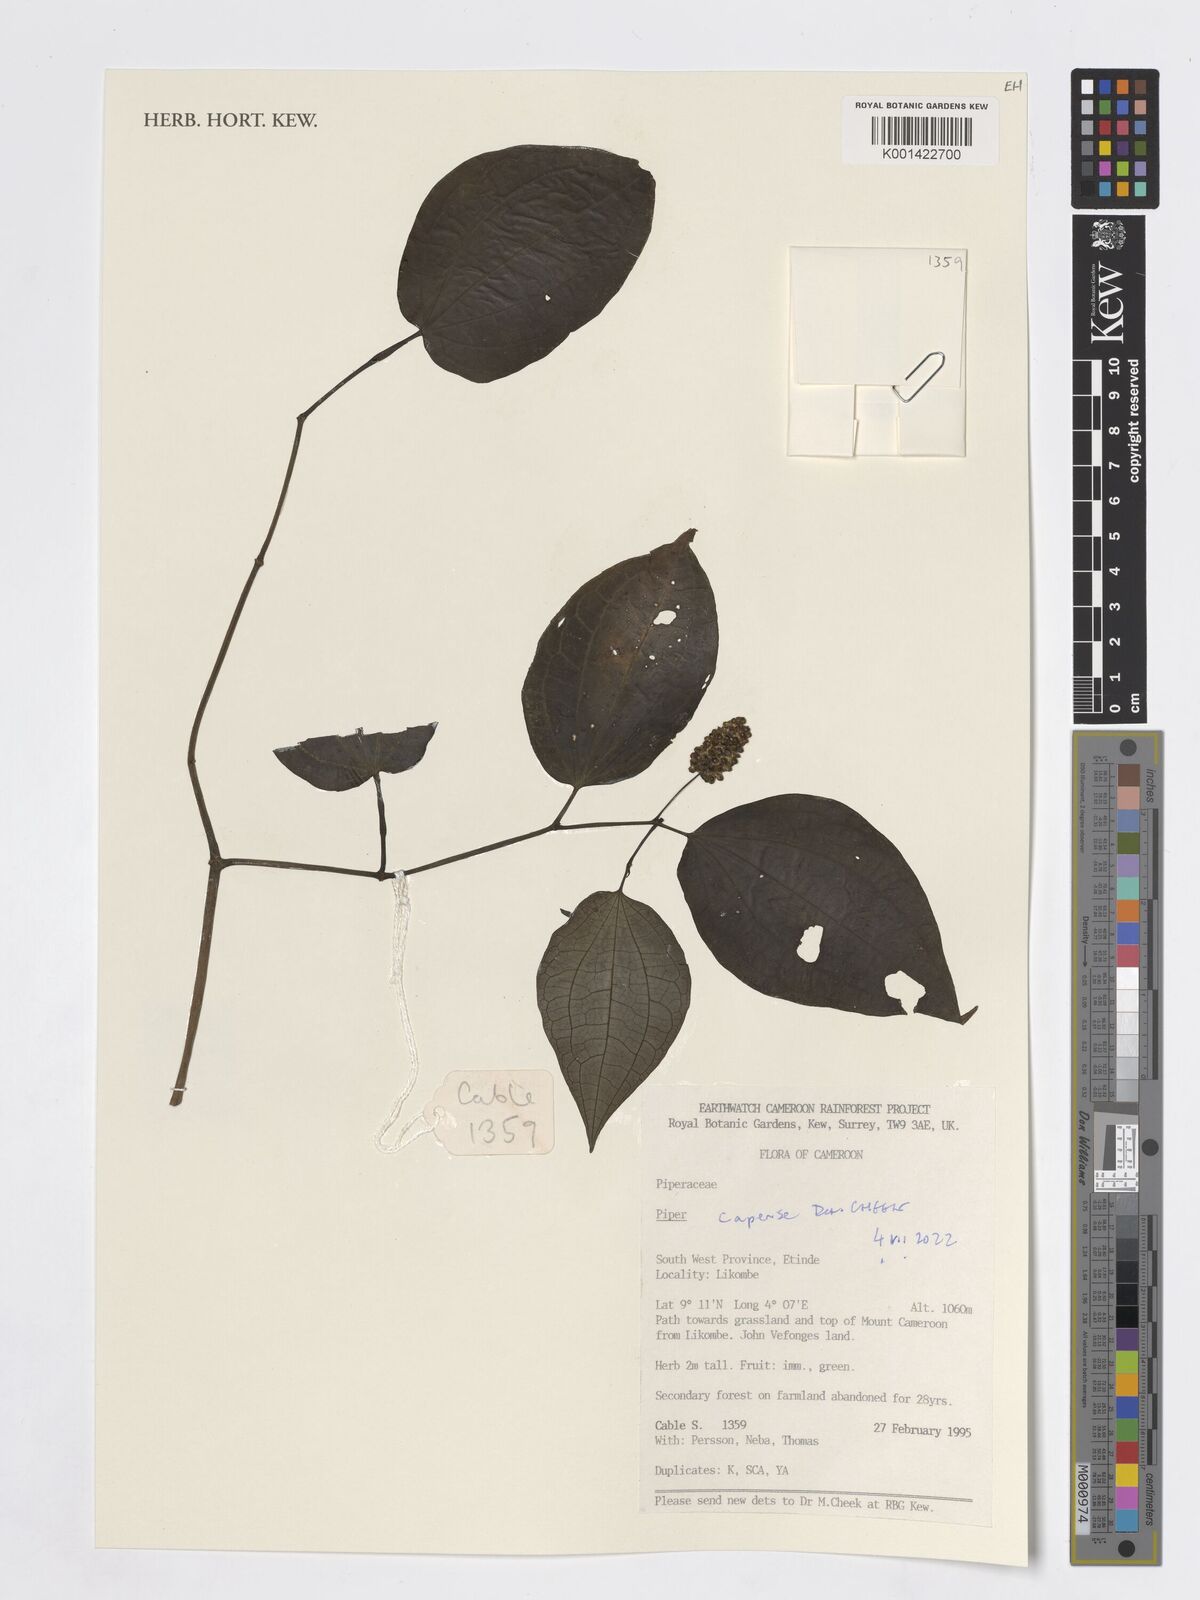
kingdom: Plantae
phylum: Tracheophyta
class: Magnoliopsida
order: Piperales
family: Piperaceae
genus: Piper
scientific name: Piper capense
